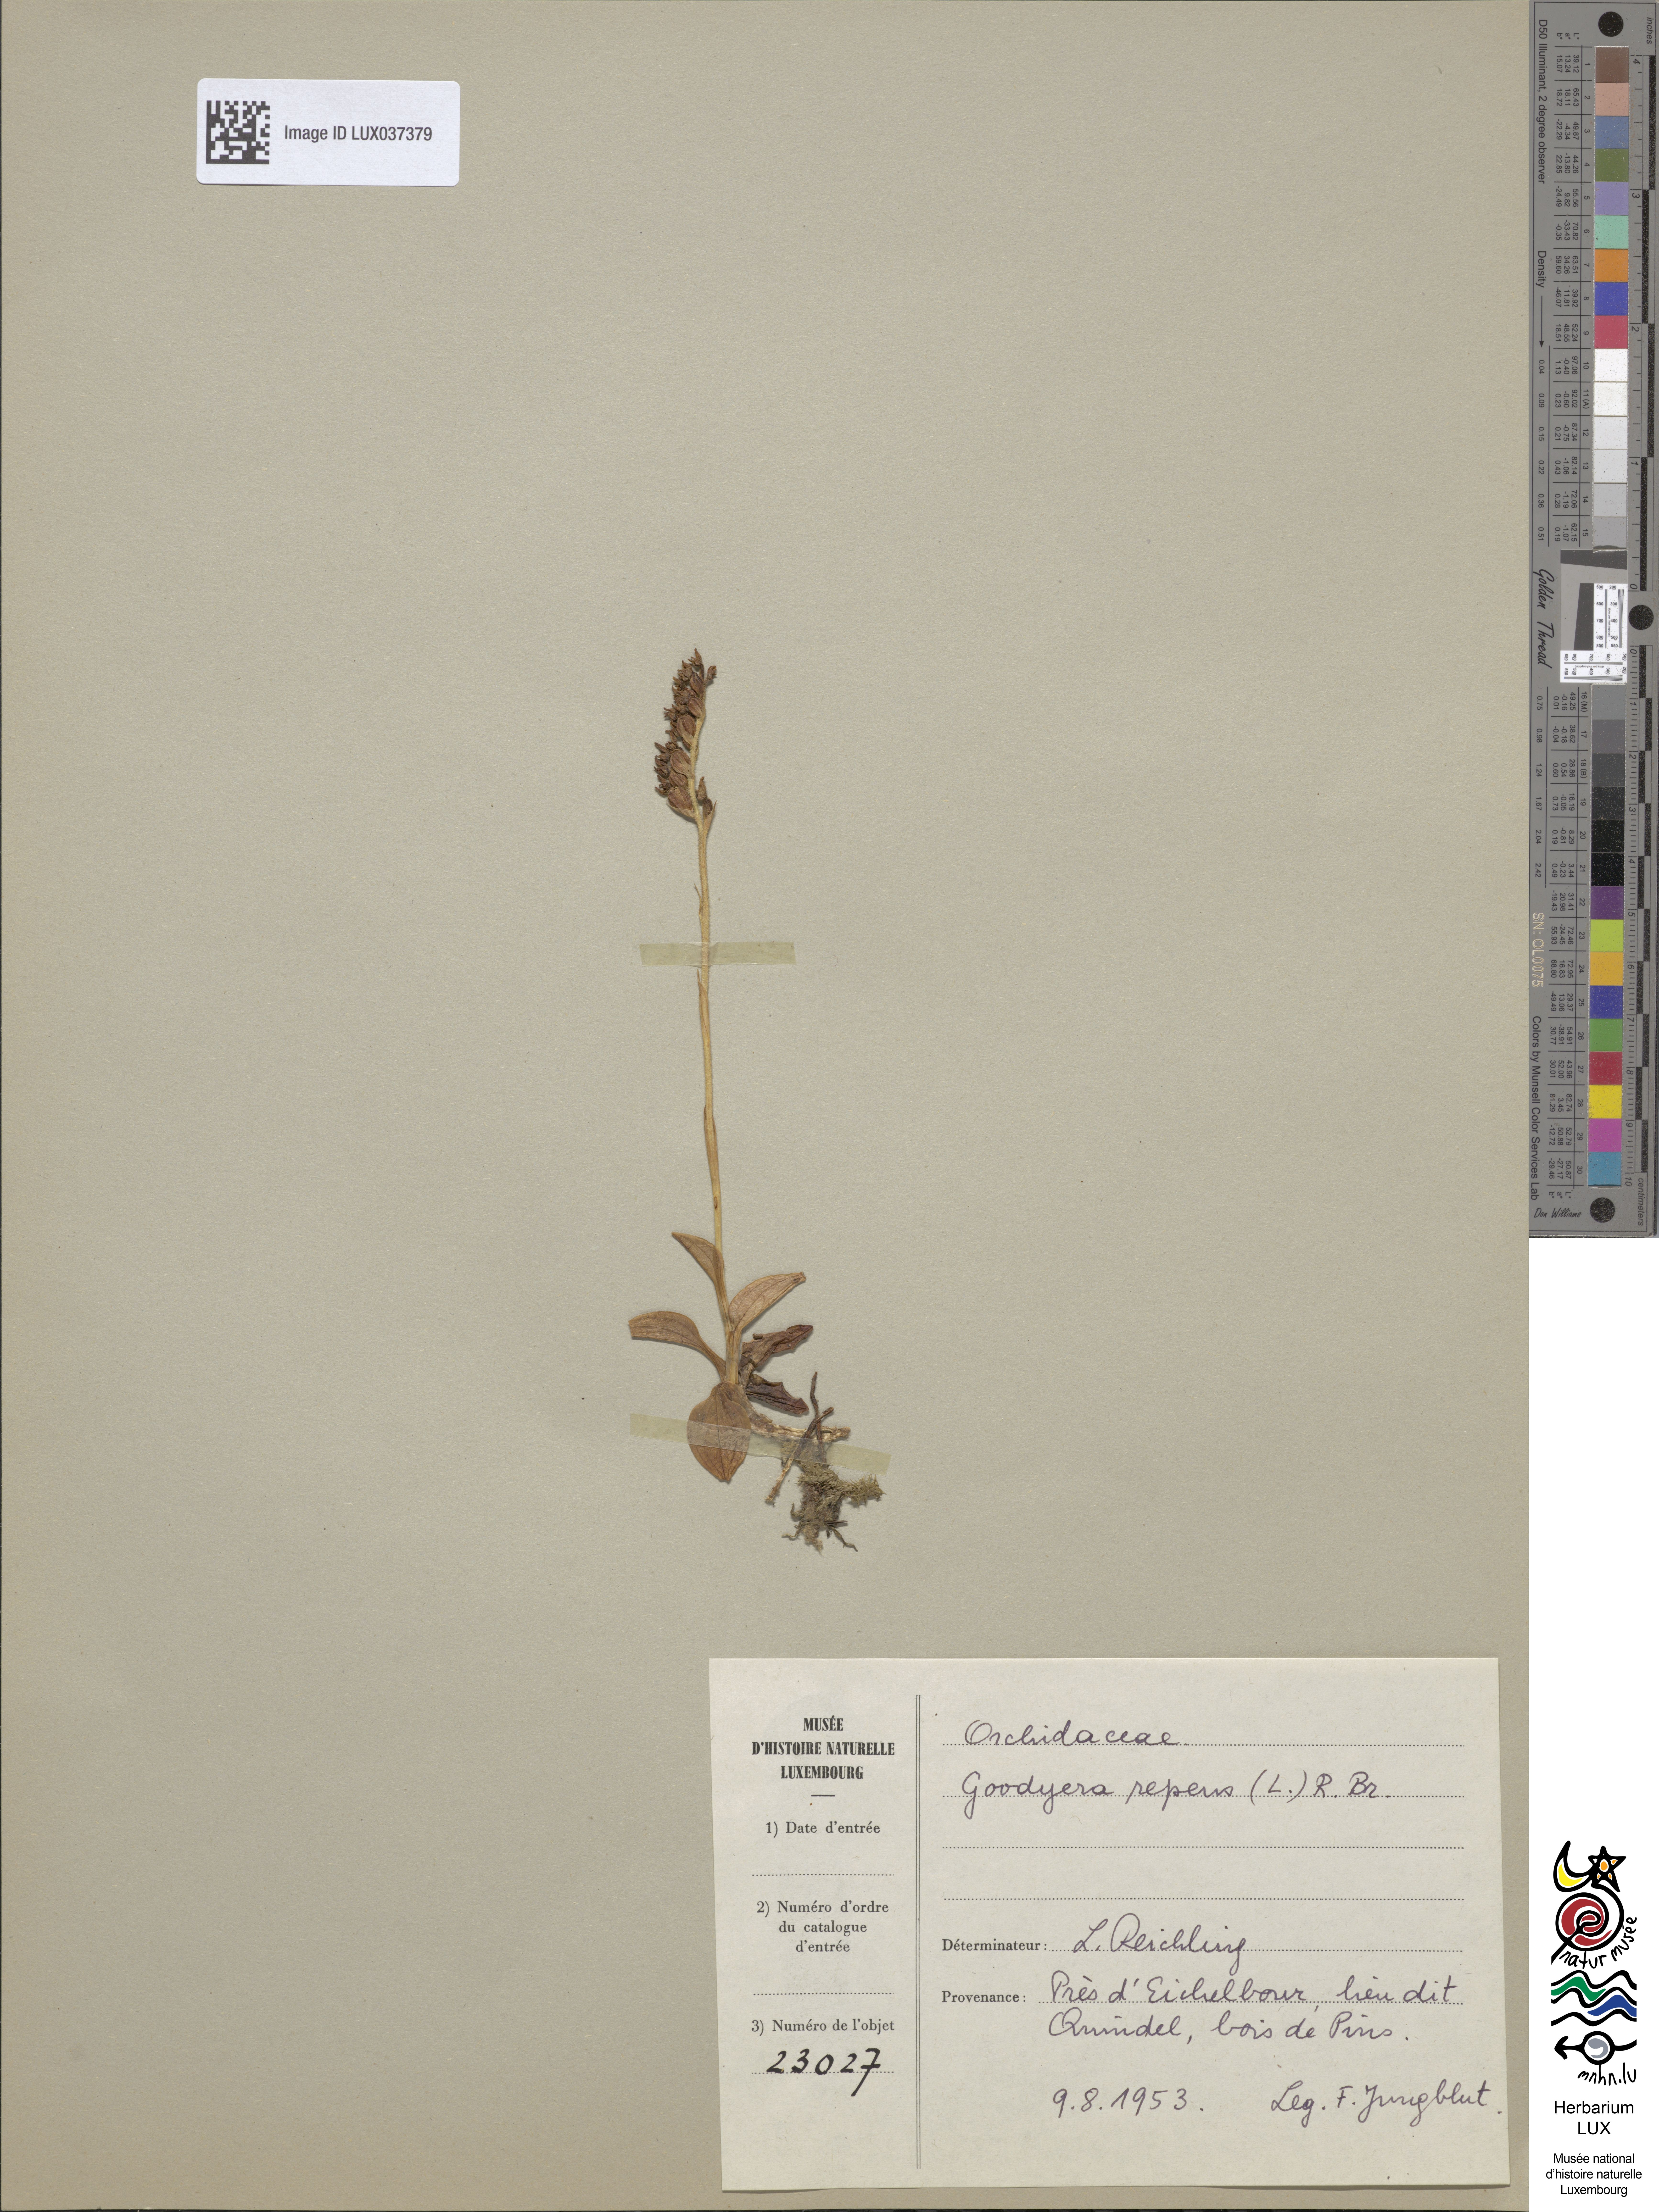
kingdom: Plantae
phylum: Tracheophyta
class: Liliopsida
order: Asparagales
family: Orchidaceae
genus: Goodyera
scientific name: Goodyera repens
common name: Creeping lady's-tresses
